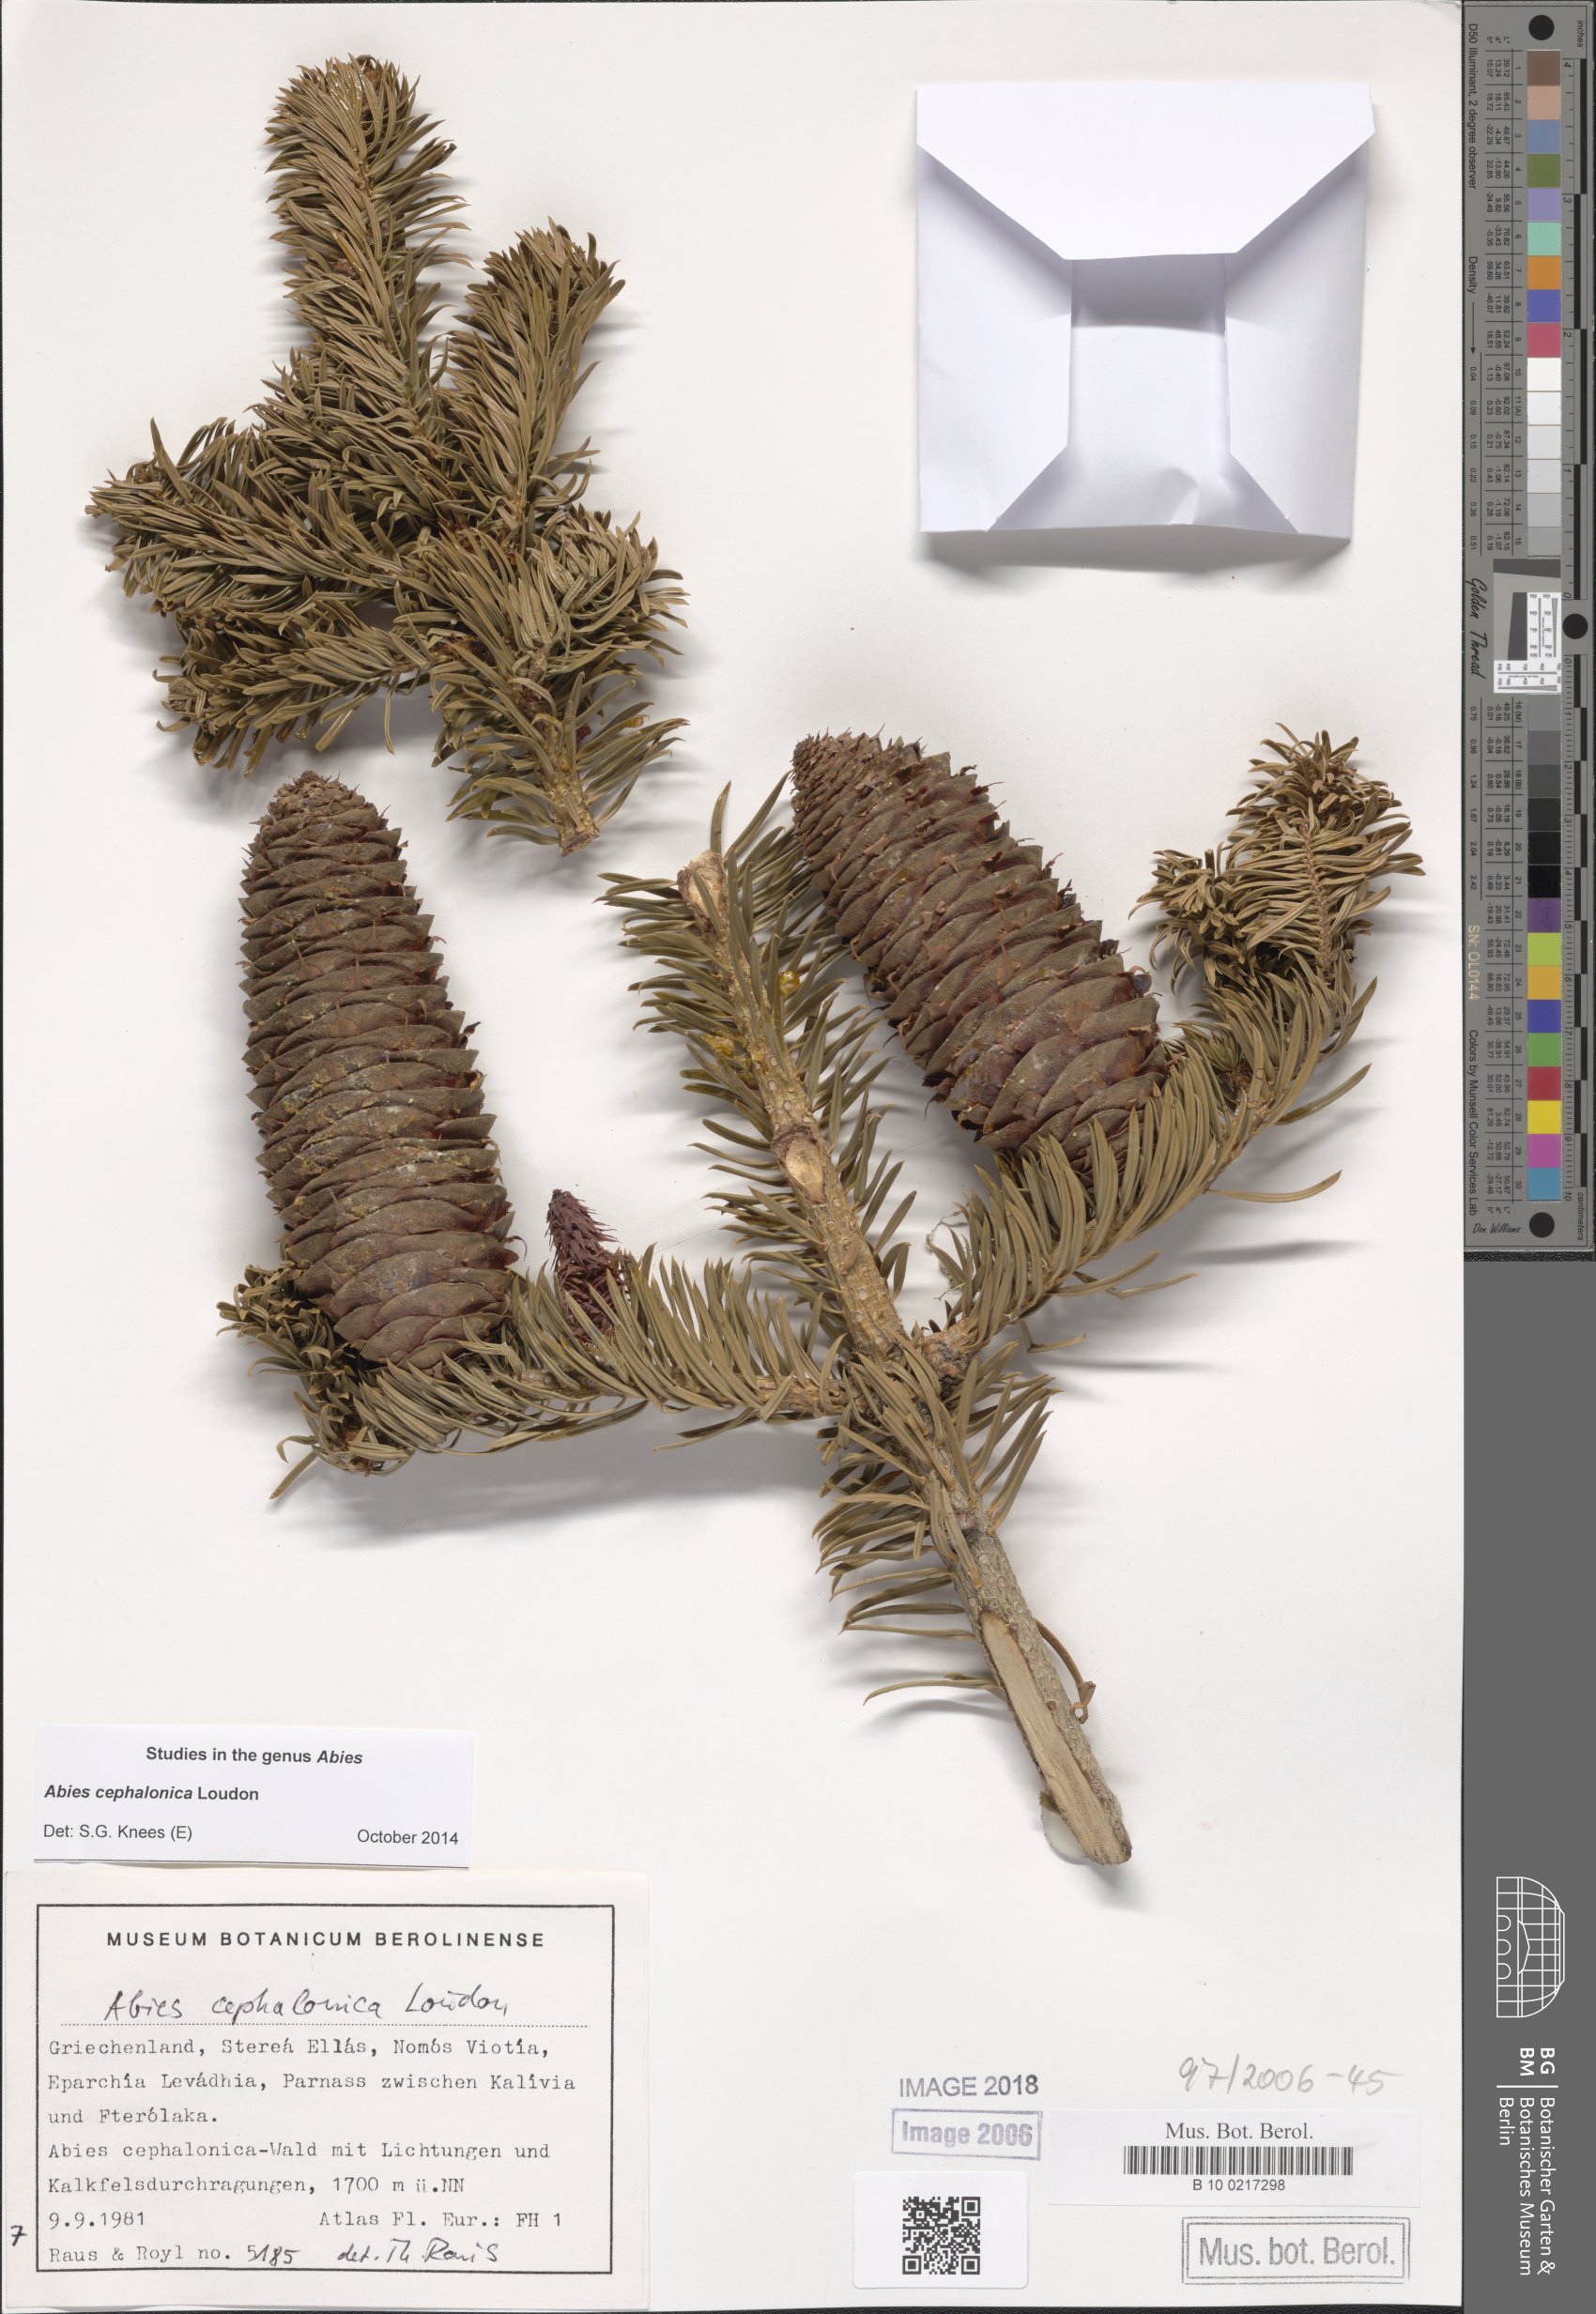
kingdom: Plantae
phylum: Tracheophyta
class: Pinopsida
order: Pinales
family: Pinaceae
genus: Abies
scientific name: Abies cephalonica
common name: Greek fir
